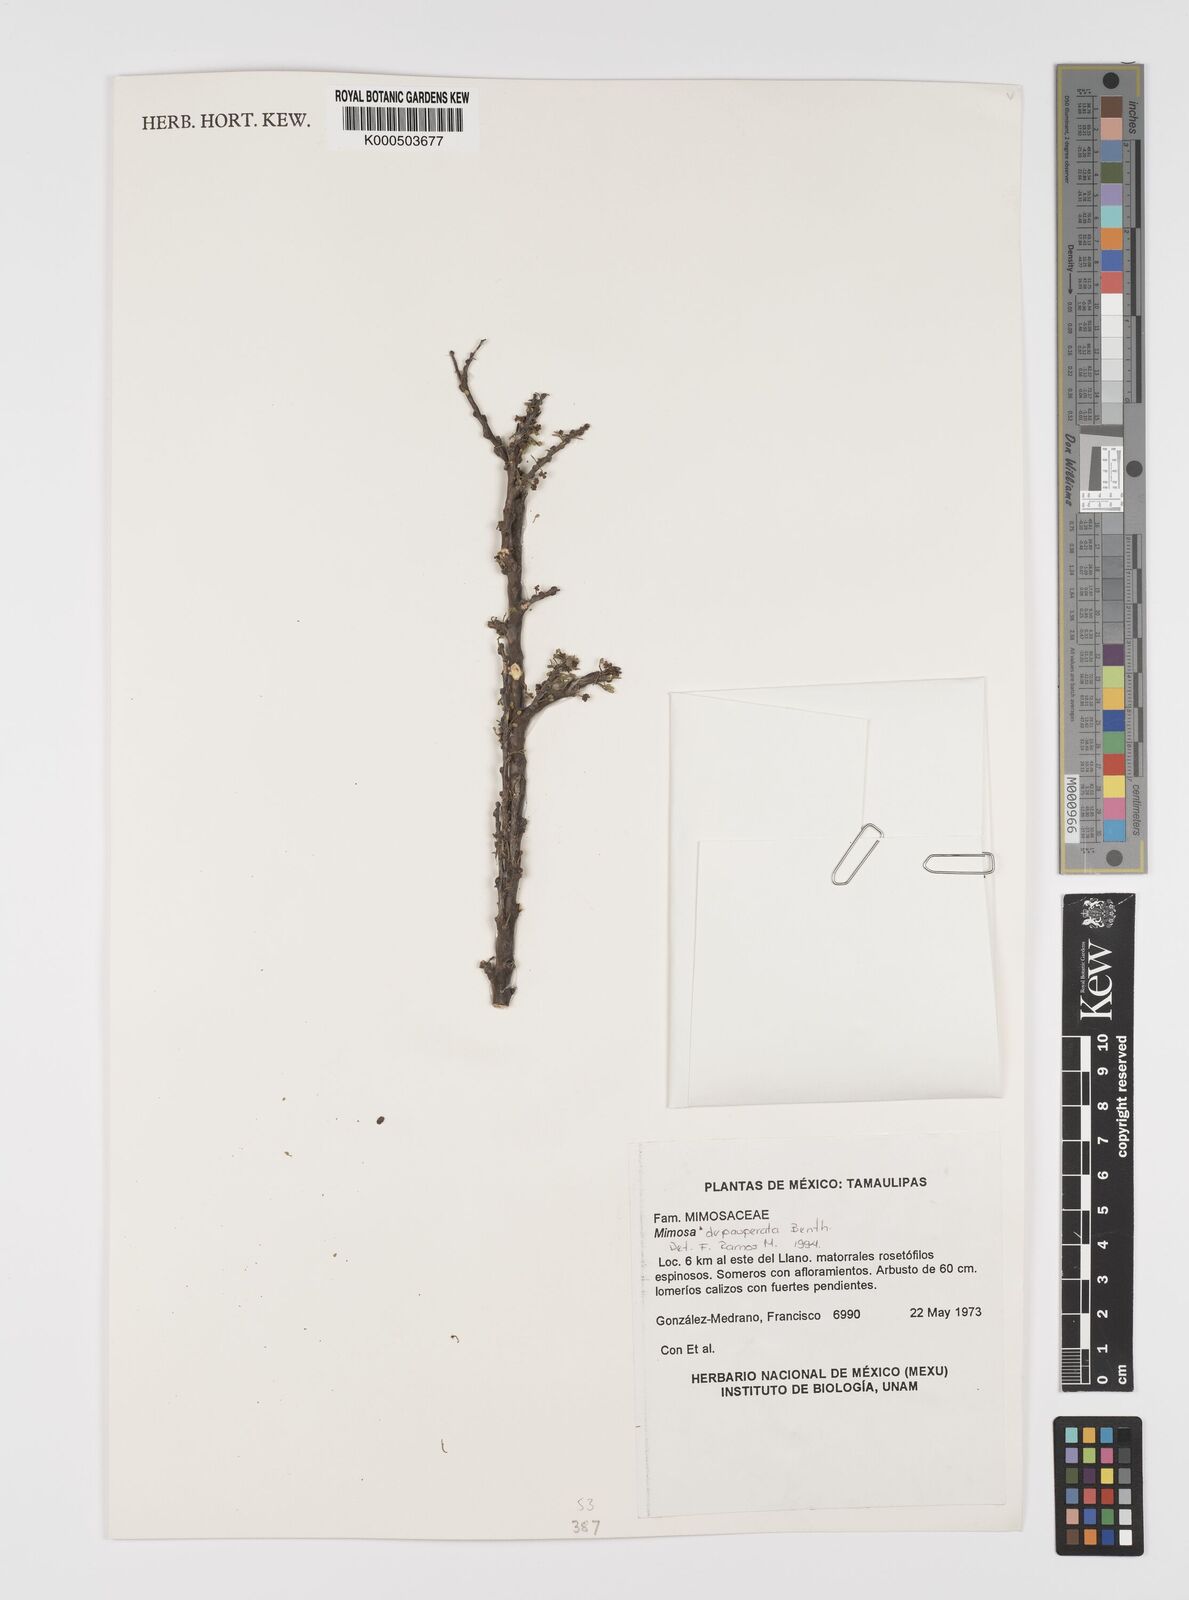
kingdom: Plantae
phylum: Tracheophyta
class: Magnoliopsida
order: Fabales
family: Fabaceae
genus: Mimosa
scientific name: Mimosa depauperata
